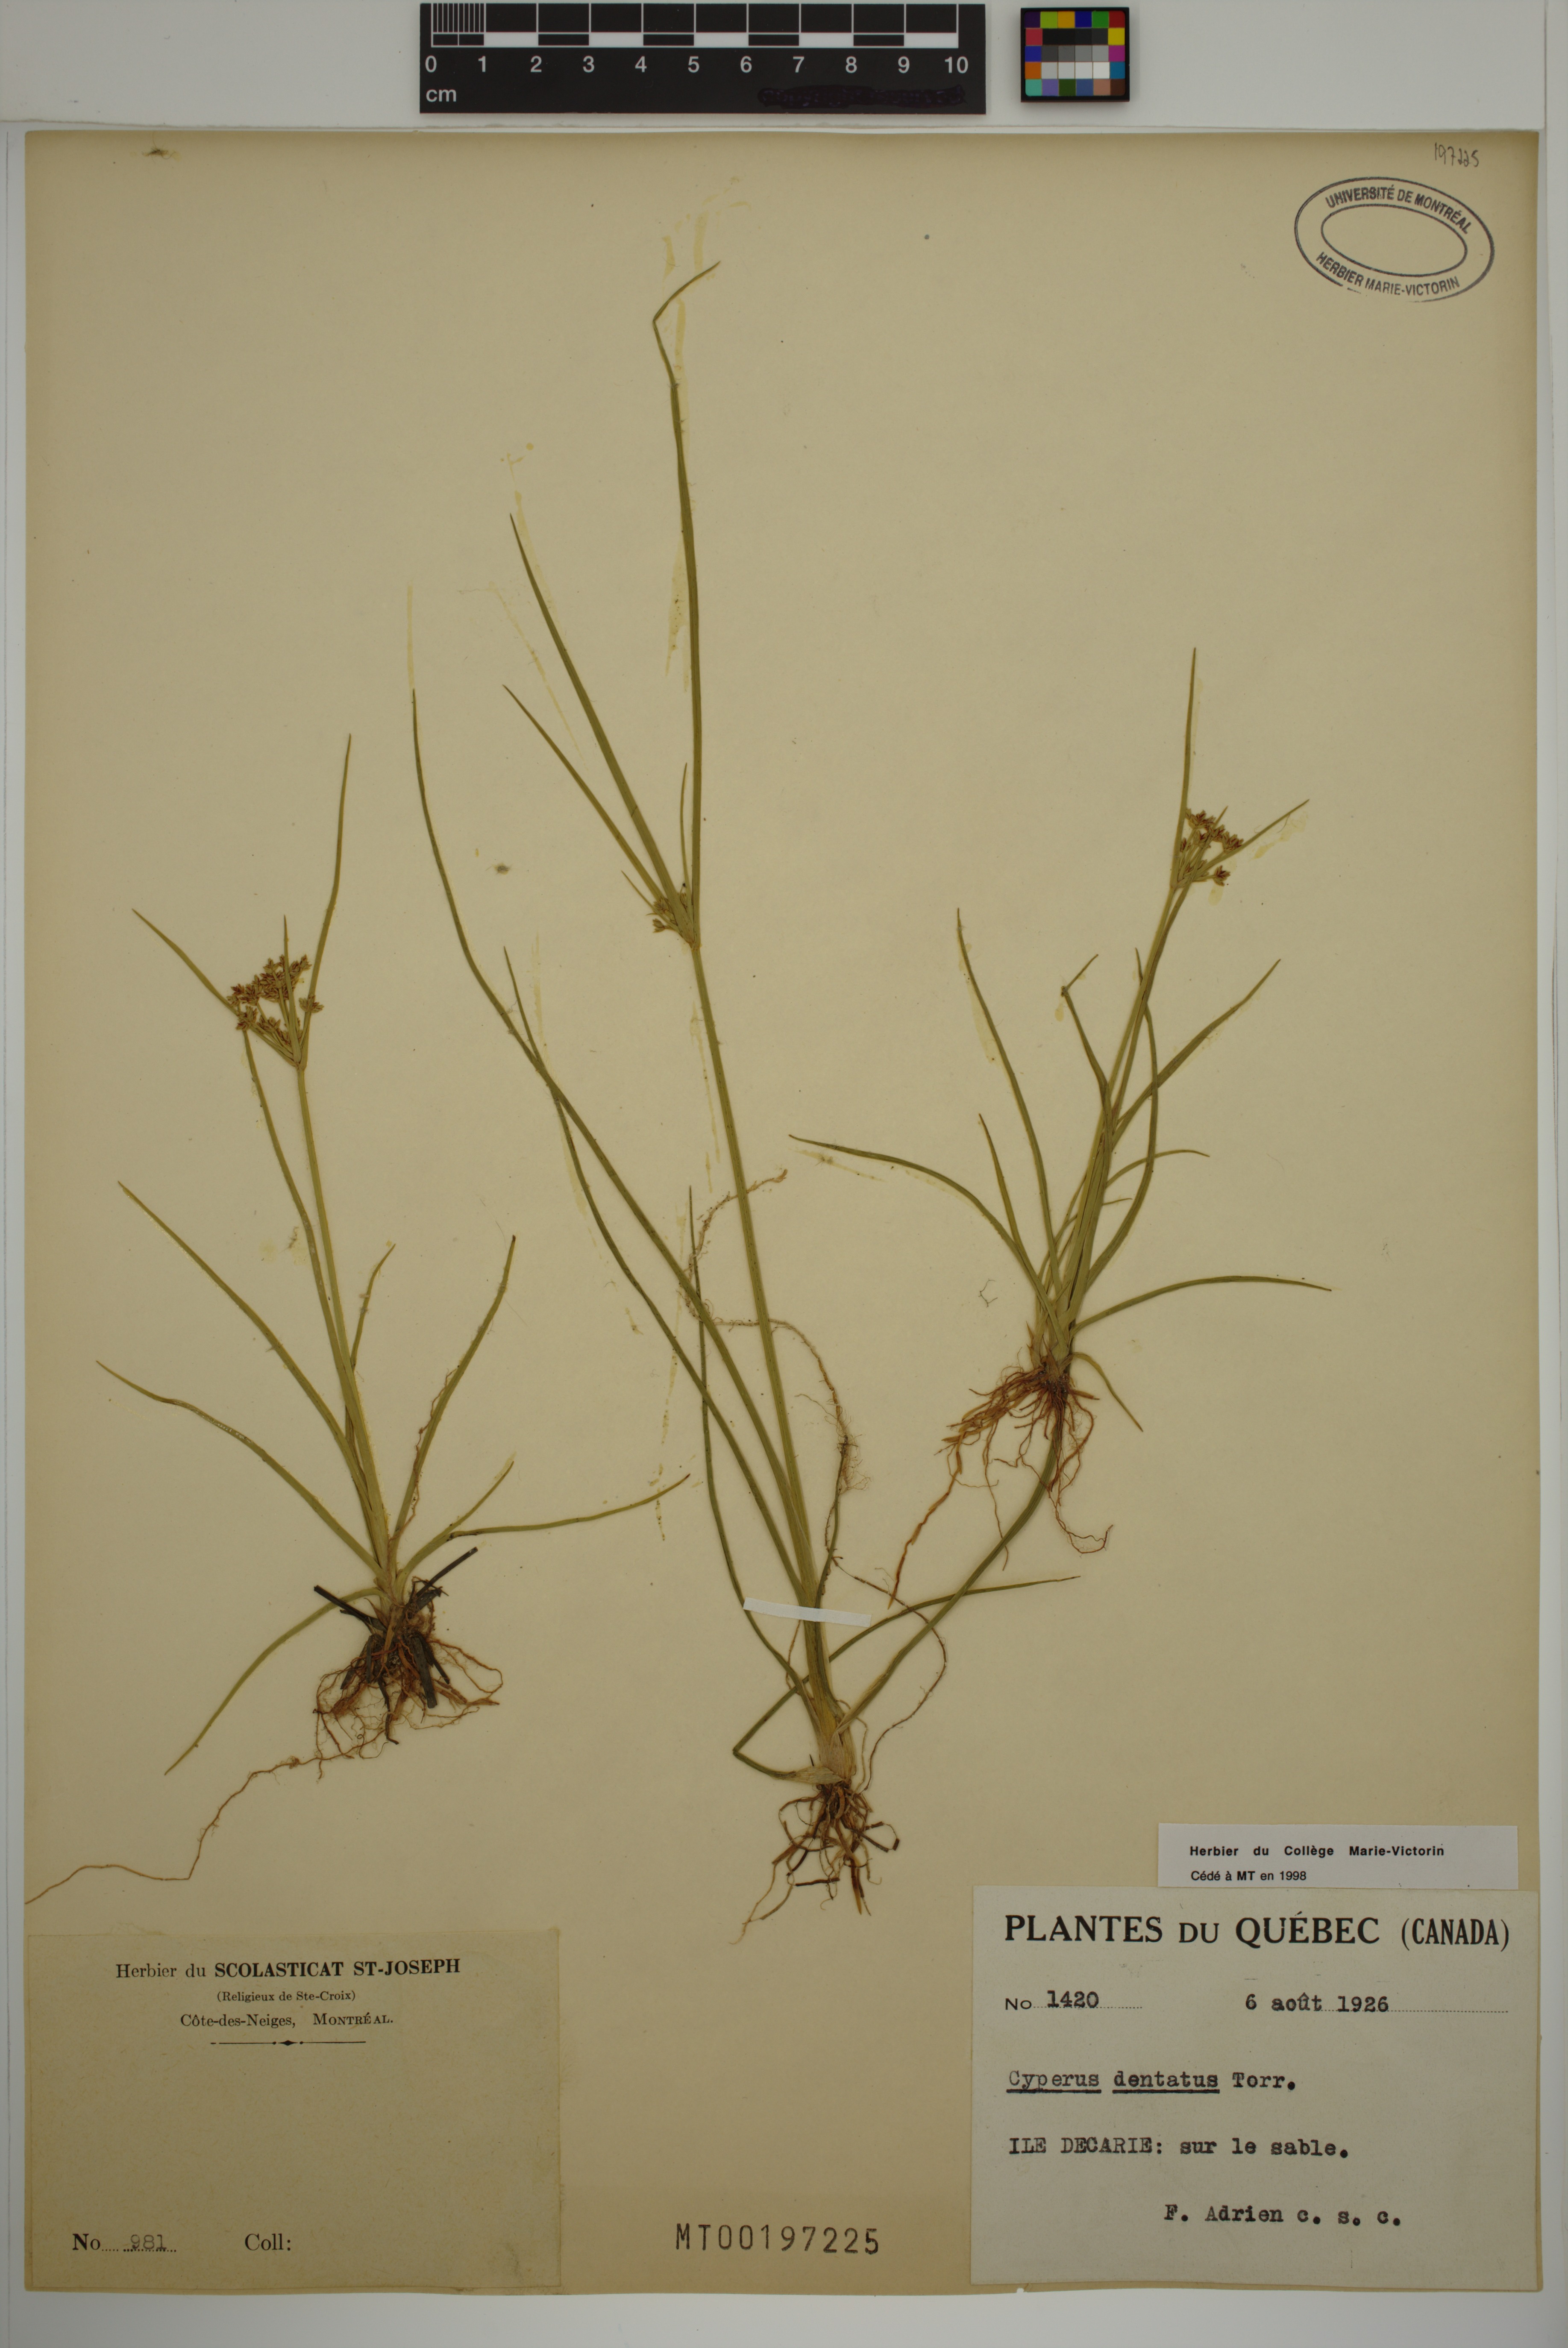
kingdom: Plantae
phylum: Tracheophyta
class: Liliopsida
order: Poales
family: Cyperaceae
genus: Cyperus
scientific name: Cyperus dentatus
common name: Dentate umbrella sedge
